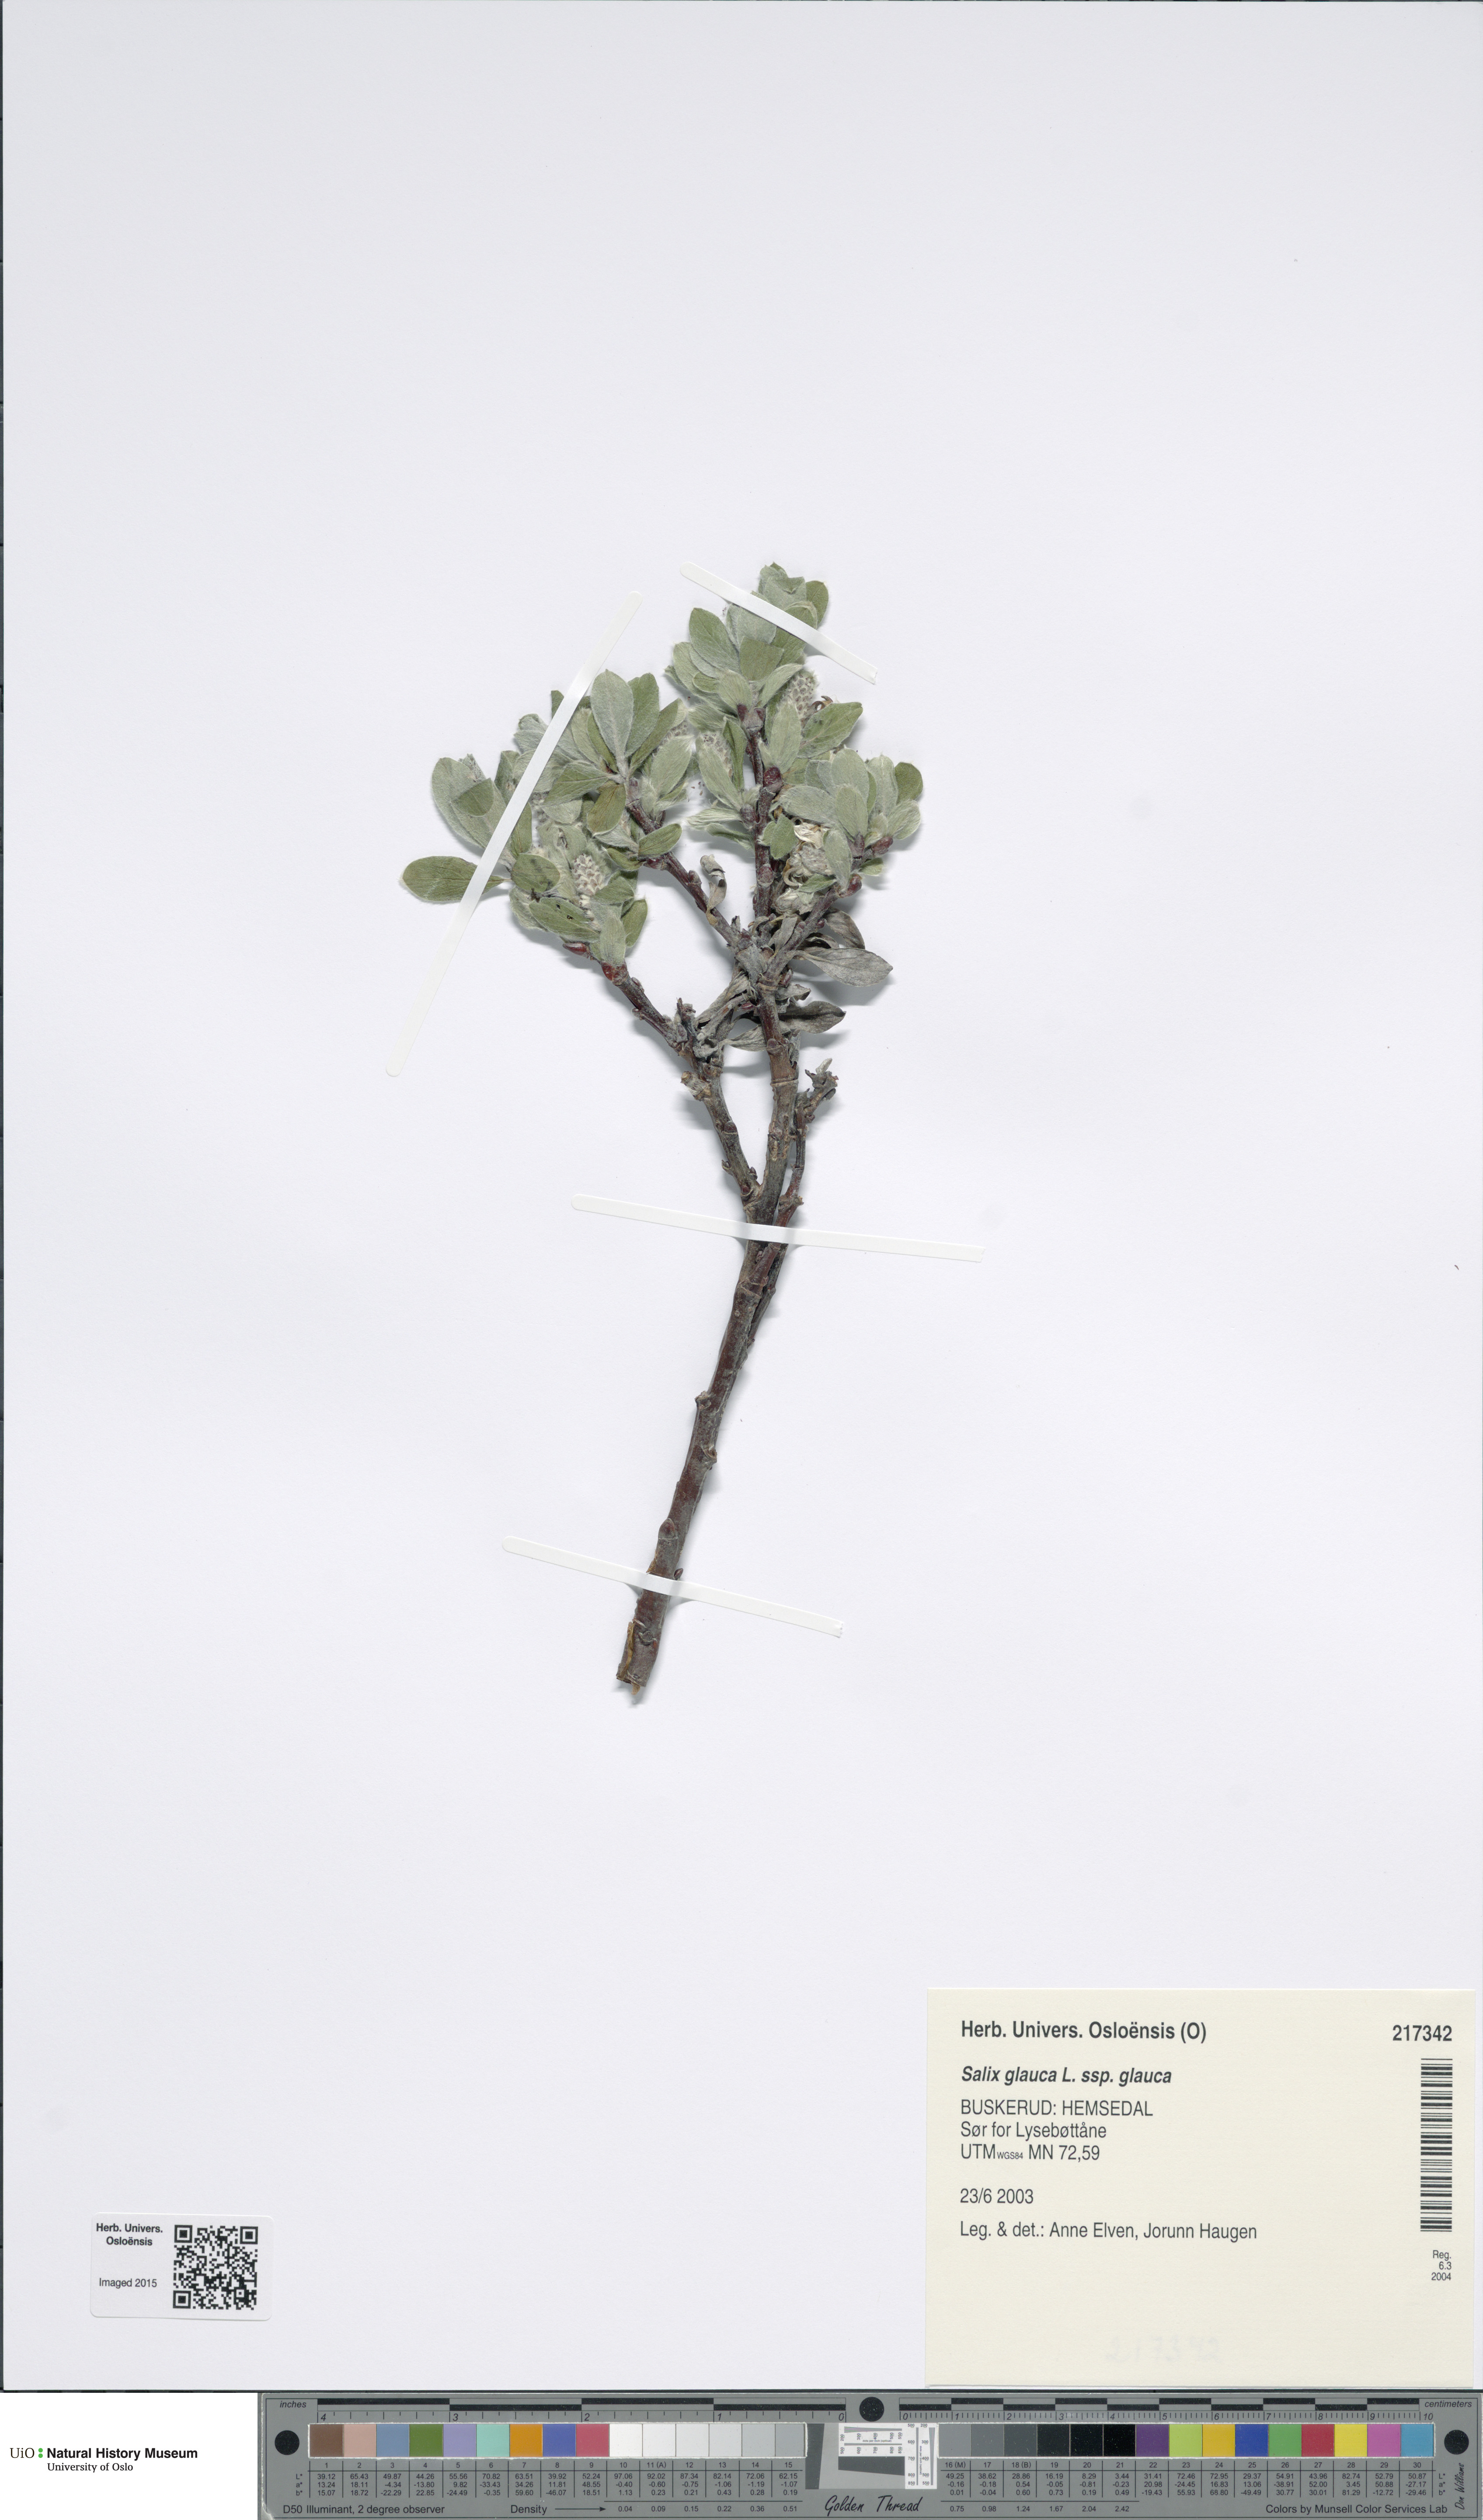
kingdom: Plantae
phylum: Tracheophyta
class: Magnoliopsida
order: Malpighiales
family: Salicaceae
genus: Salix
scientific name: Salix glauca
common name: Glaucous willow
